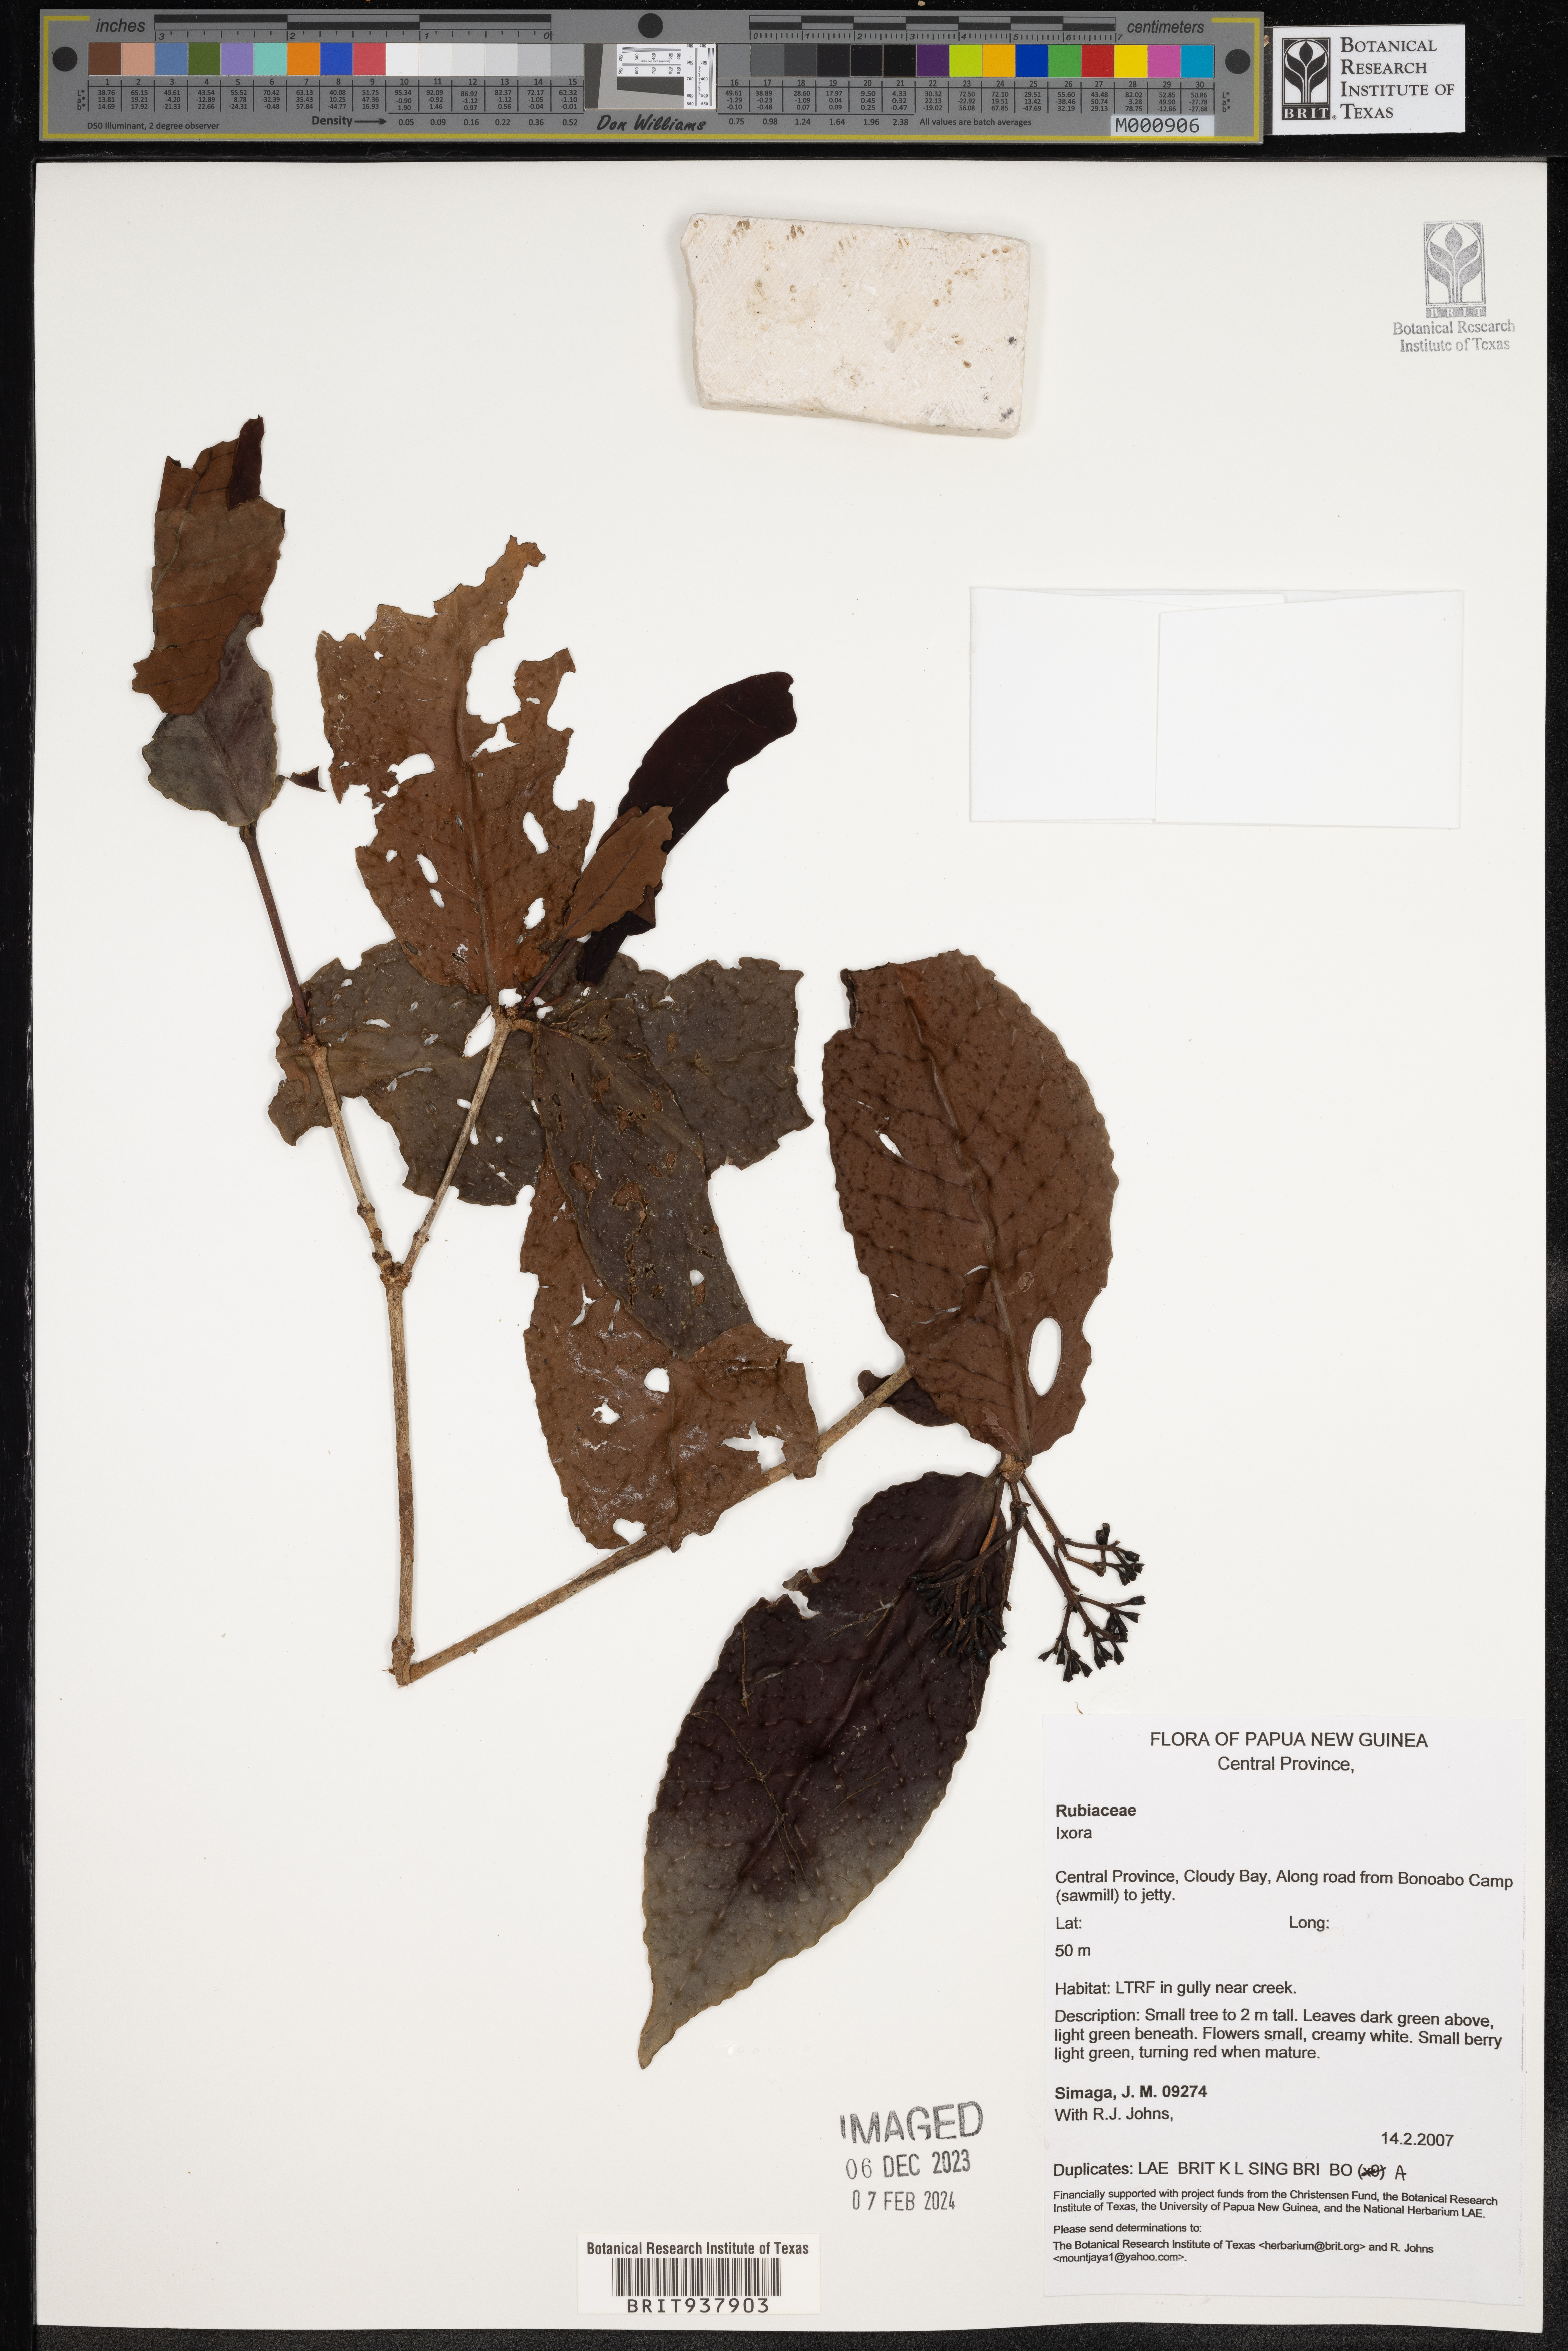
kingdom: Plantae
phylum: Tracheophyta
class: Magnoliopsida
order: Gentianales
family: Rubiaceae
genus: Ixora
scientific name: Ixora
